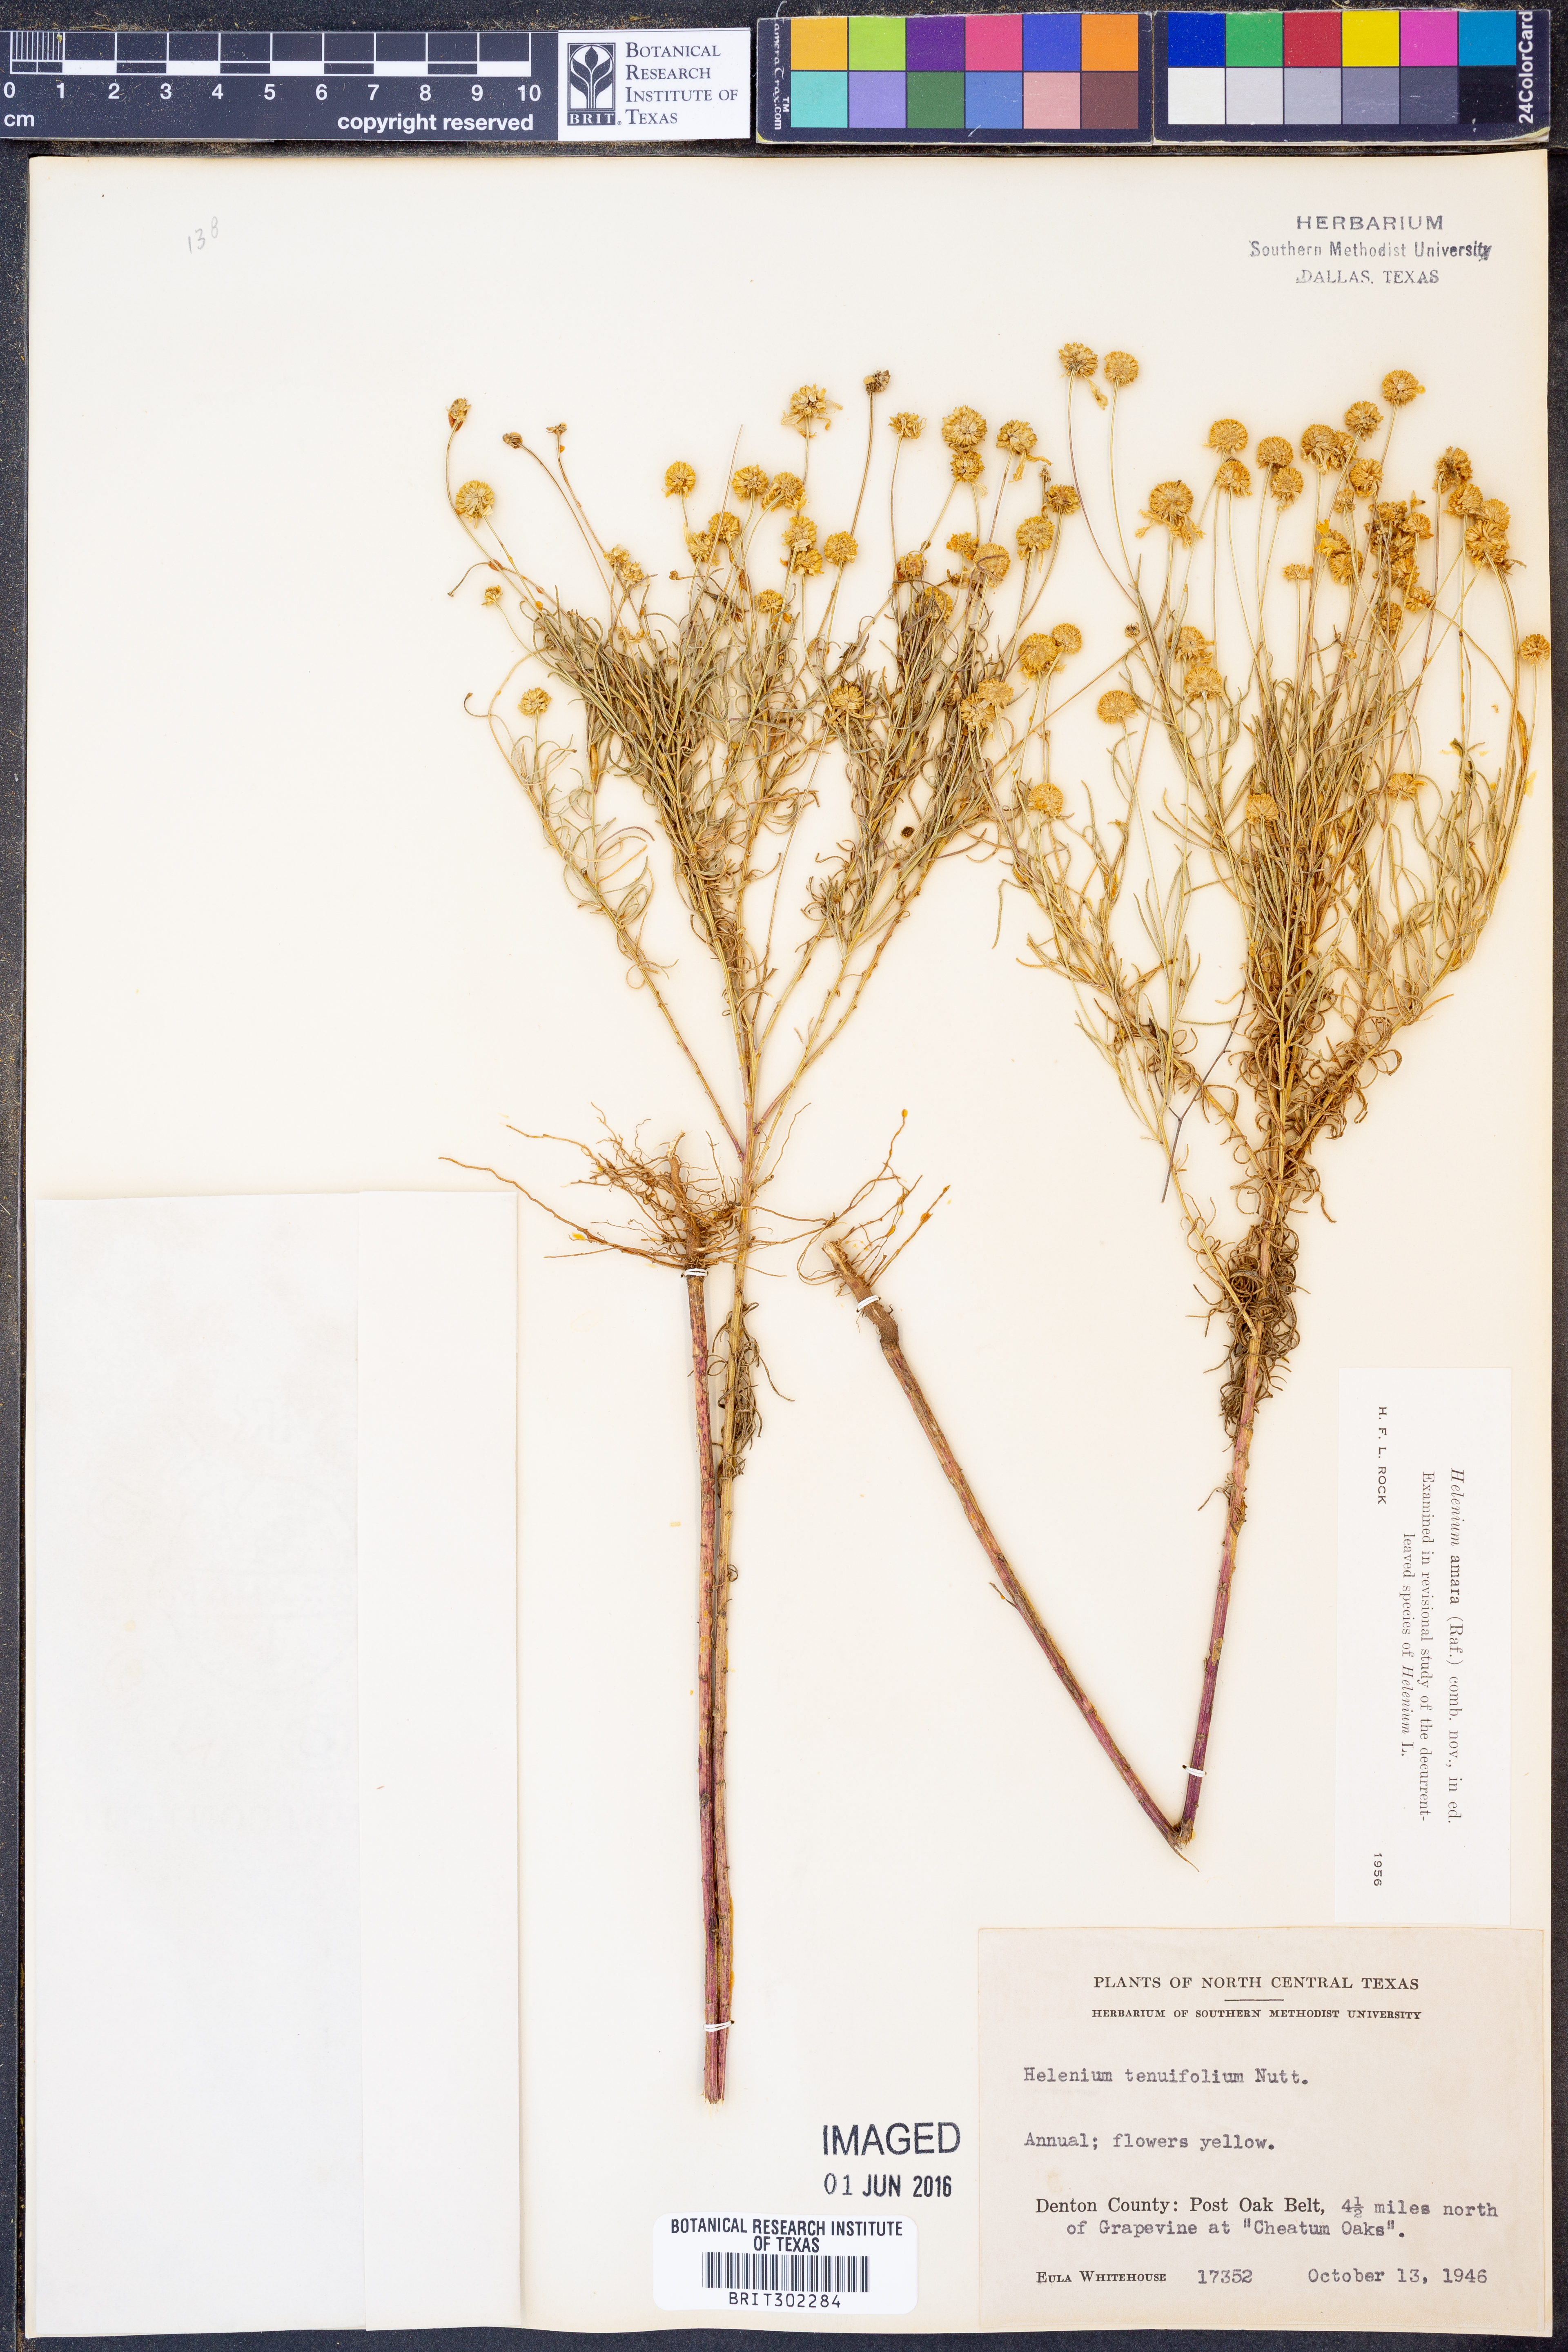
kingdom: Plantae
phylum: Tracheophyta
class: Magnoliopsida
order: Asterales
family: Asteraceae
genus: Helenium
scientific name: Helenium amarum
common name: Bitter sneezeweed
